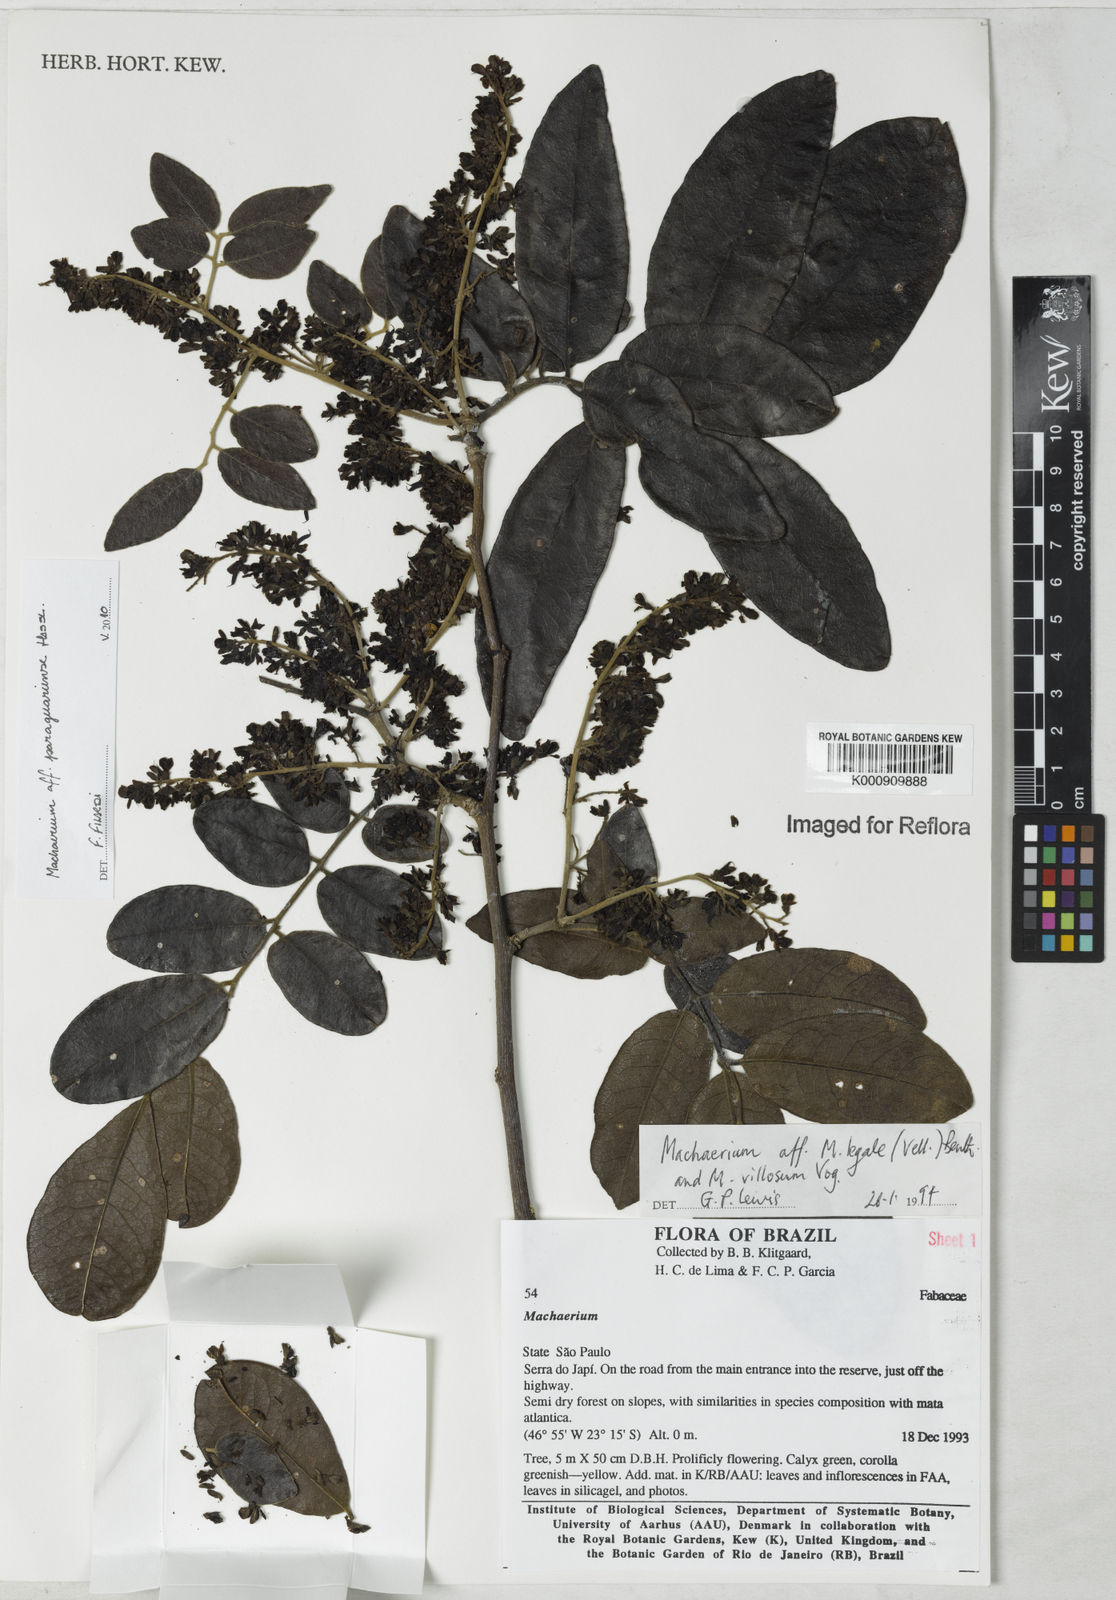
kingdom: Plantae
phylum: Tracheophyta
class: Magnoliopsida
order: Fabales
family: Fabaceae
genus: Machaerium
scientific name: Machaerium oblongifolium
